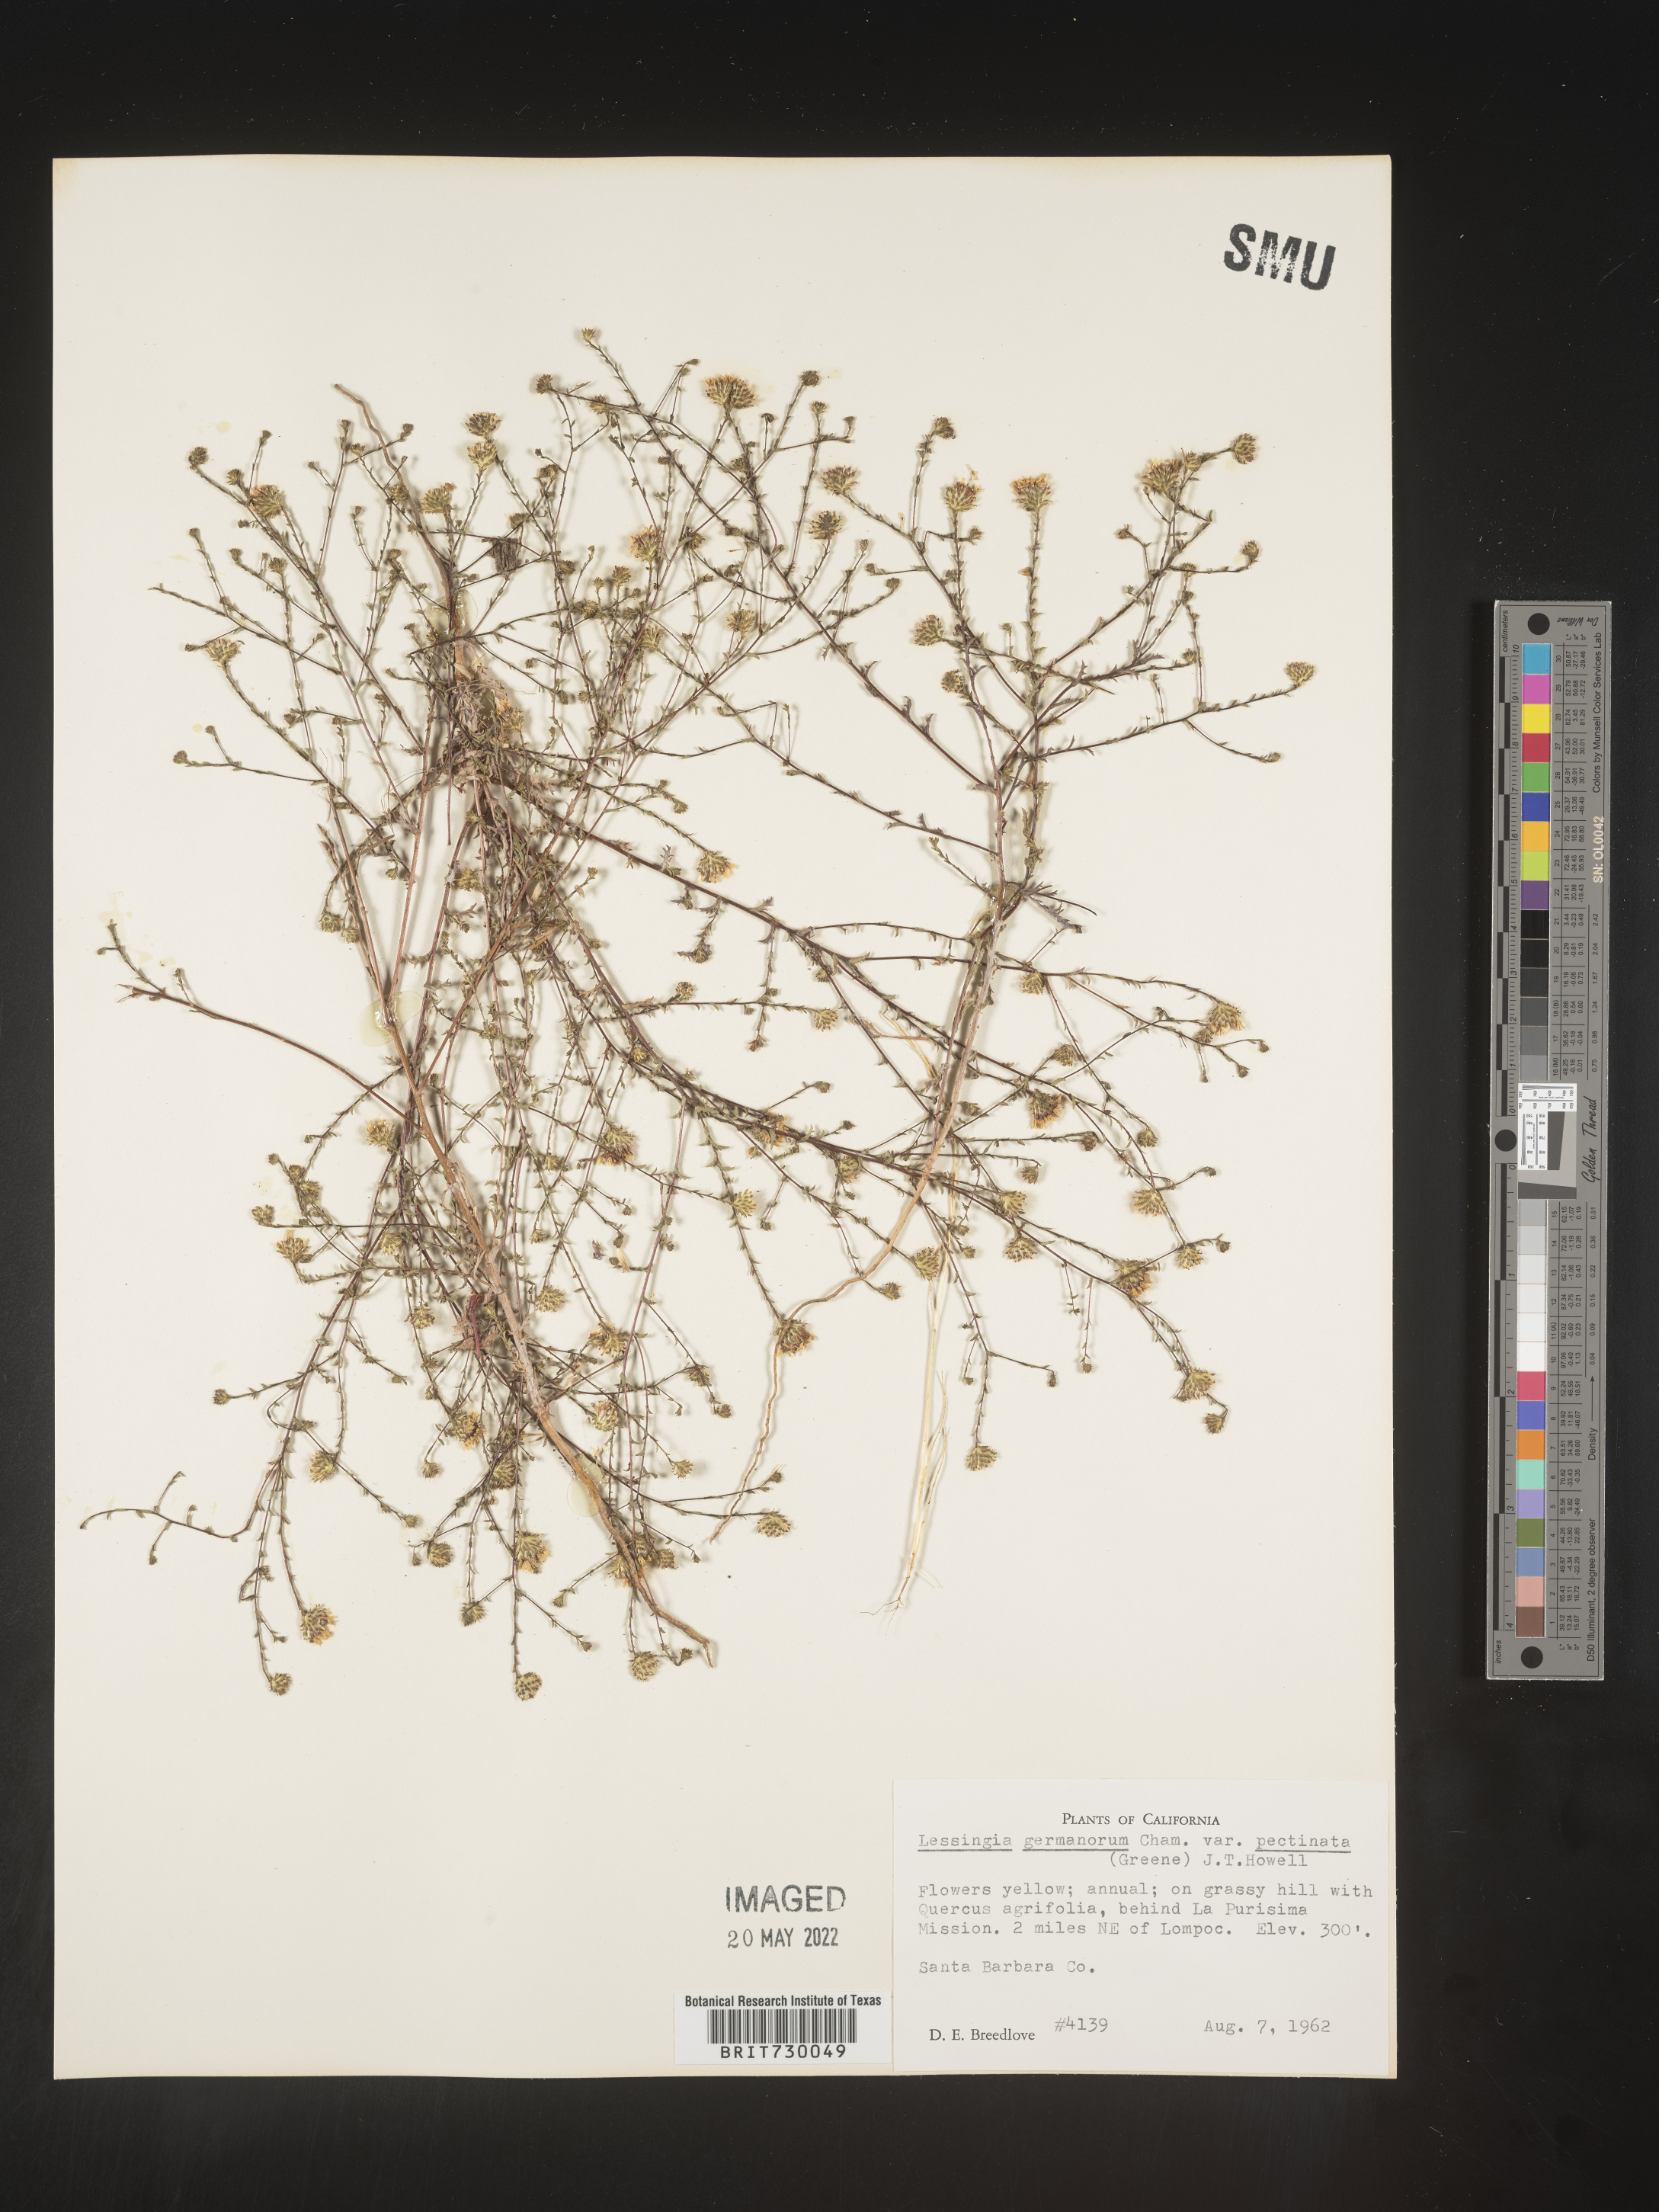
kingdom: Plantae
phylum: Tracheophyta
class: Magnoliopsida
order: Asterales
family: Asteraceae
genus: Lessingia
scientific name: Lessingia
